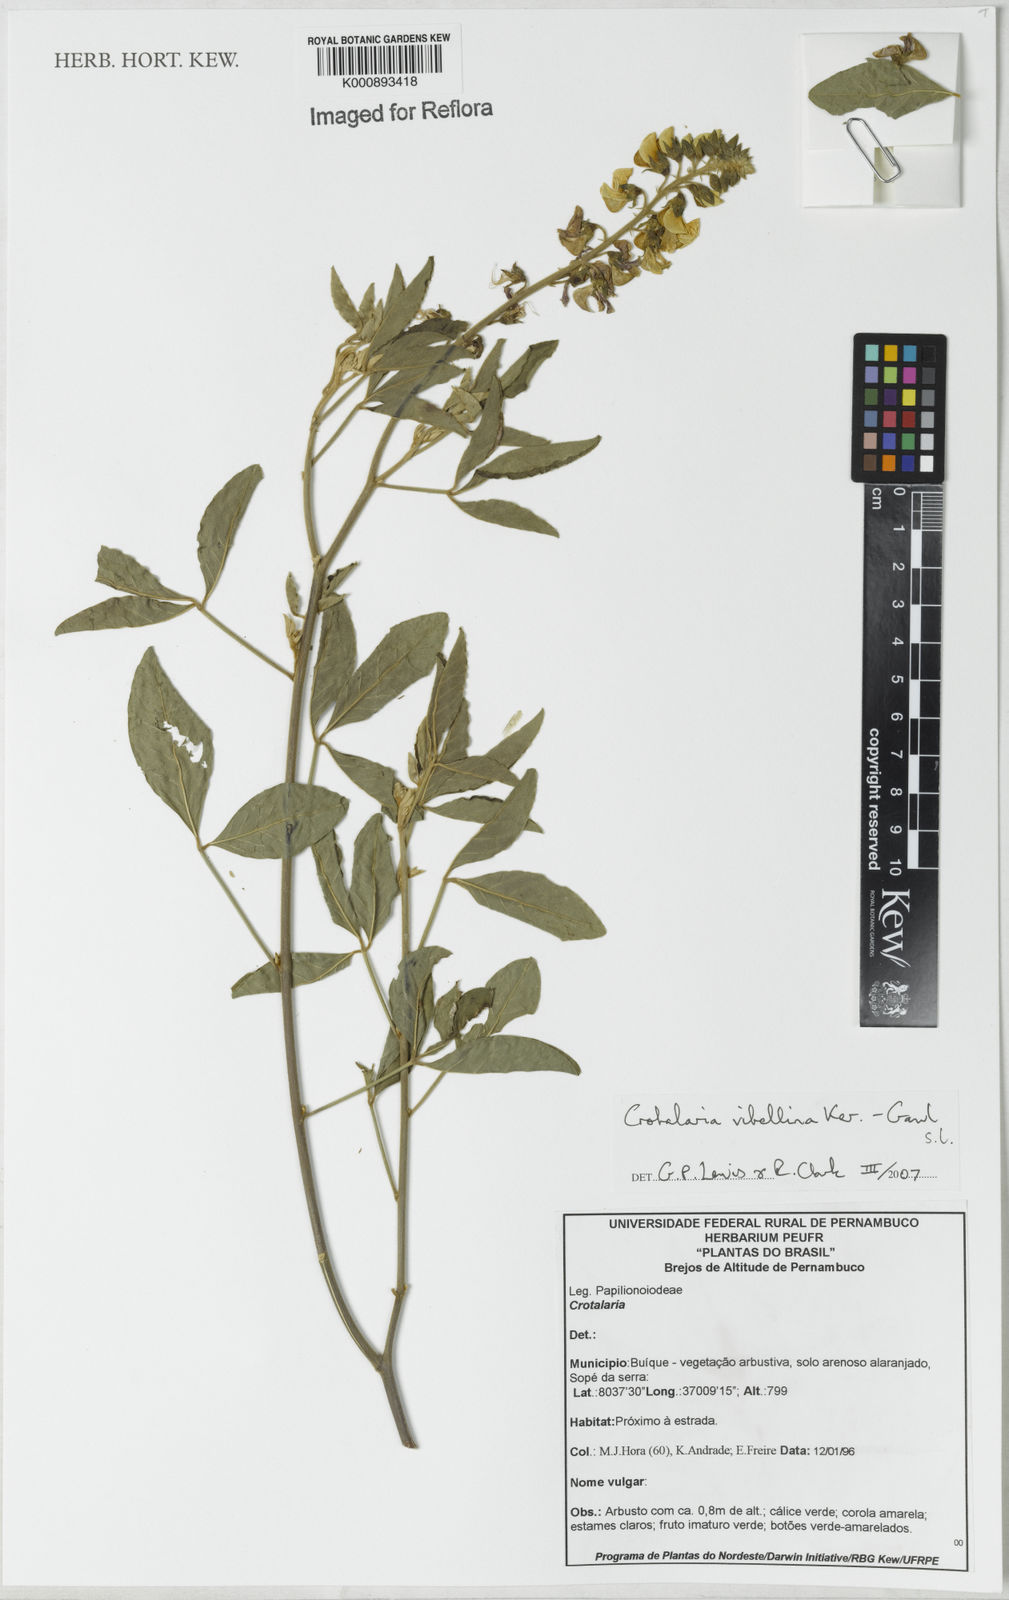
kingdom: Plantae
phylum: Tracheophyta
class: Magnoliopsida
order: Fabales
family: Fabaceae
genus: Crotalaria
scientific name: Crotalaria vitellina
